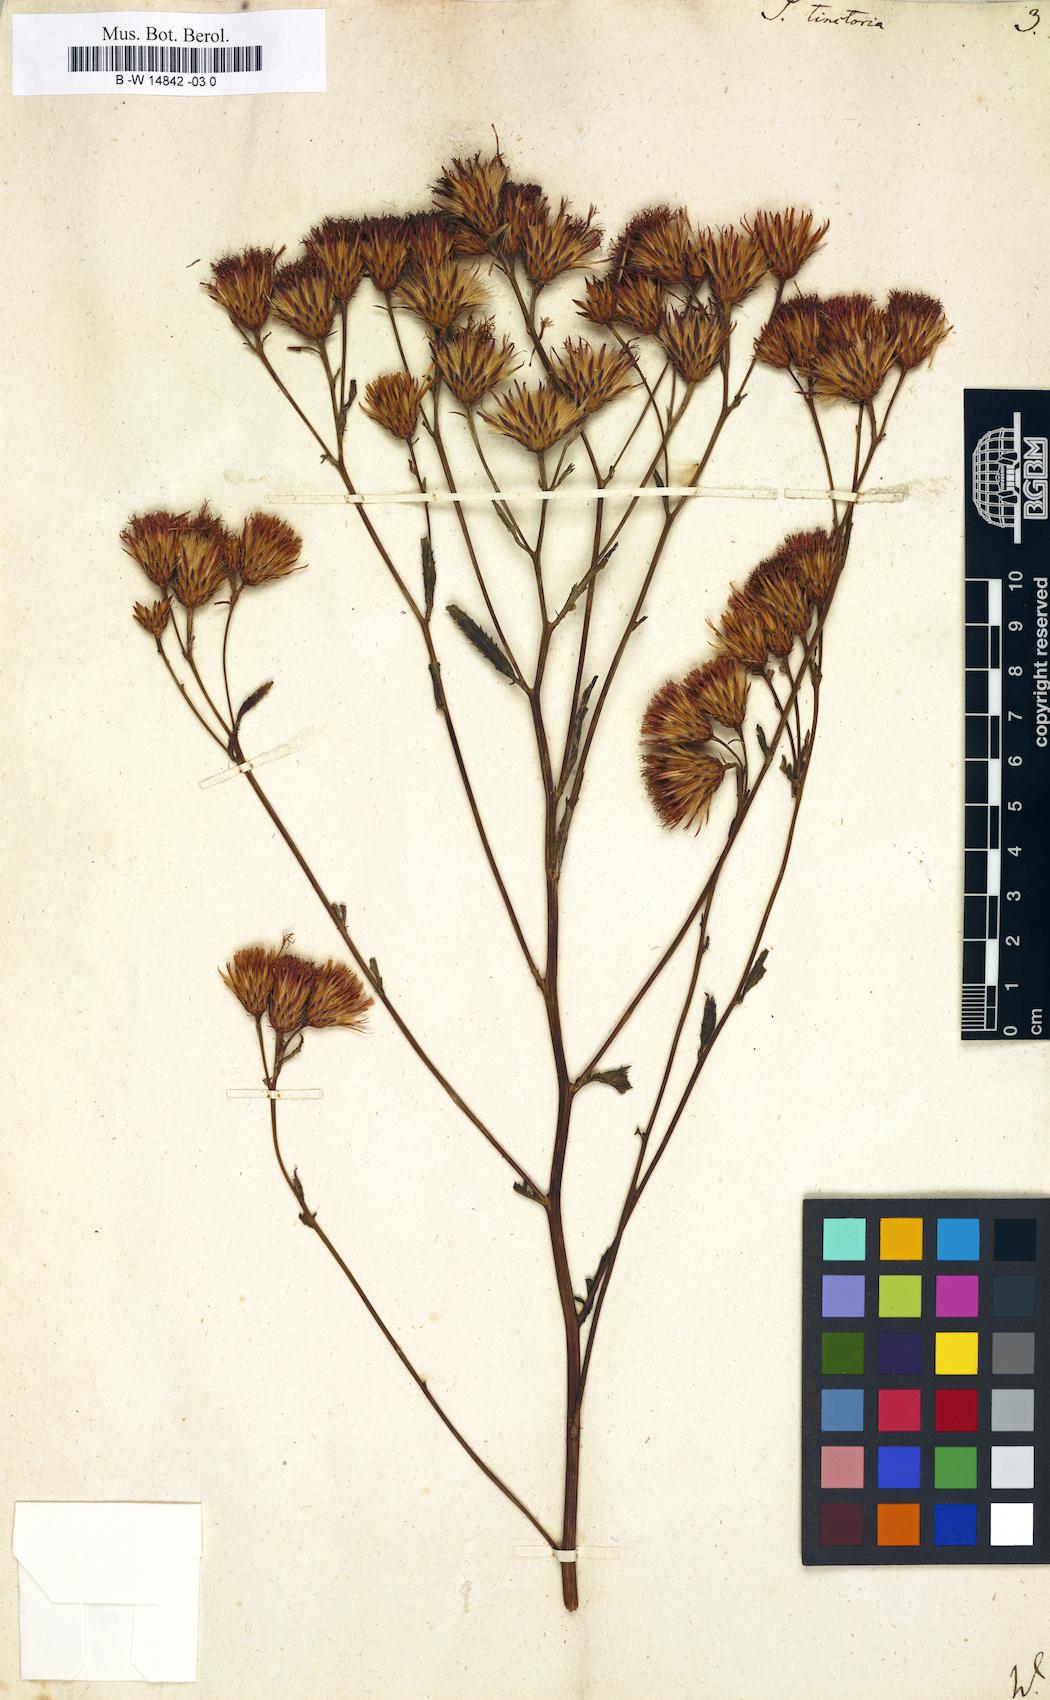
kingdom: Plantae
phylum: Tracheophyta
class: Magnoliopsida
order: Asterales
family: Asteraceae
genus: Serratula
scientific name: Serratula tinctoria
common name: Saw-wort
